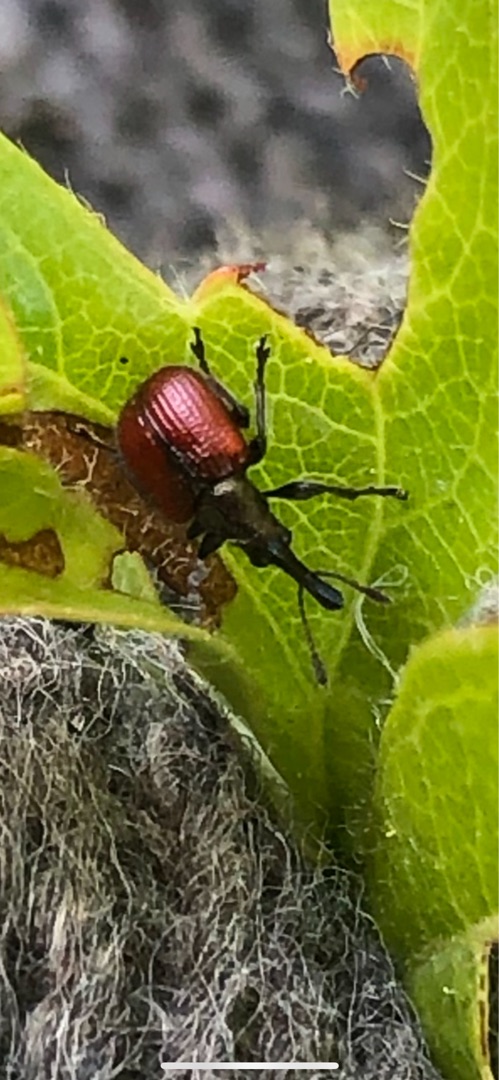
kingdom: Animalia
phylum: Arthropoda
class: Insecta
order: Coleoptera
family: Rhynchitidae
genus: Tatianaerhynchites
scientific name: Tatianaerhynchites aequatus
